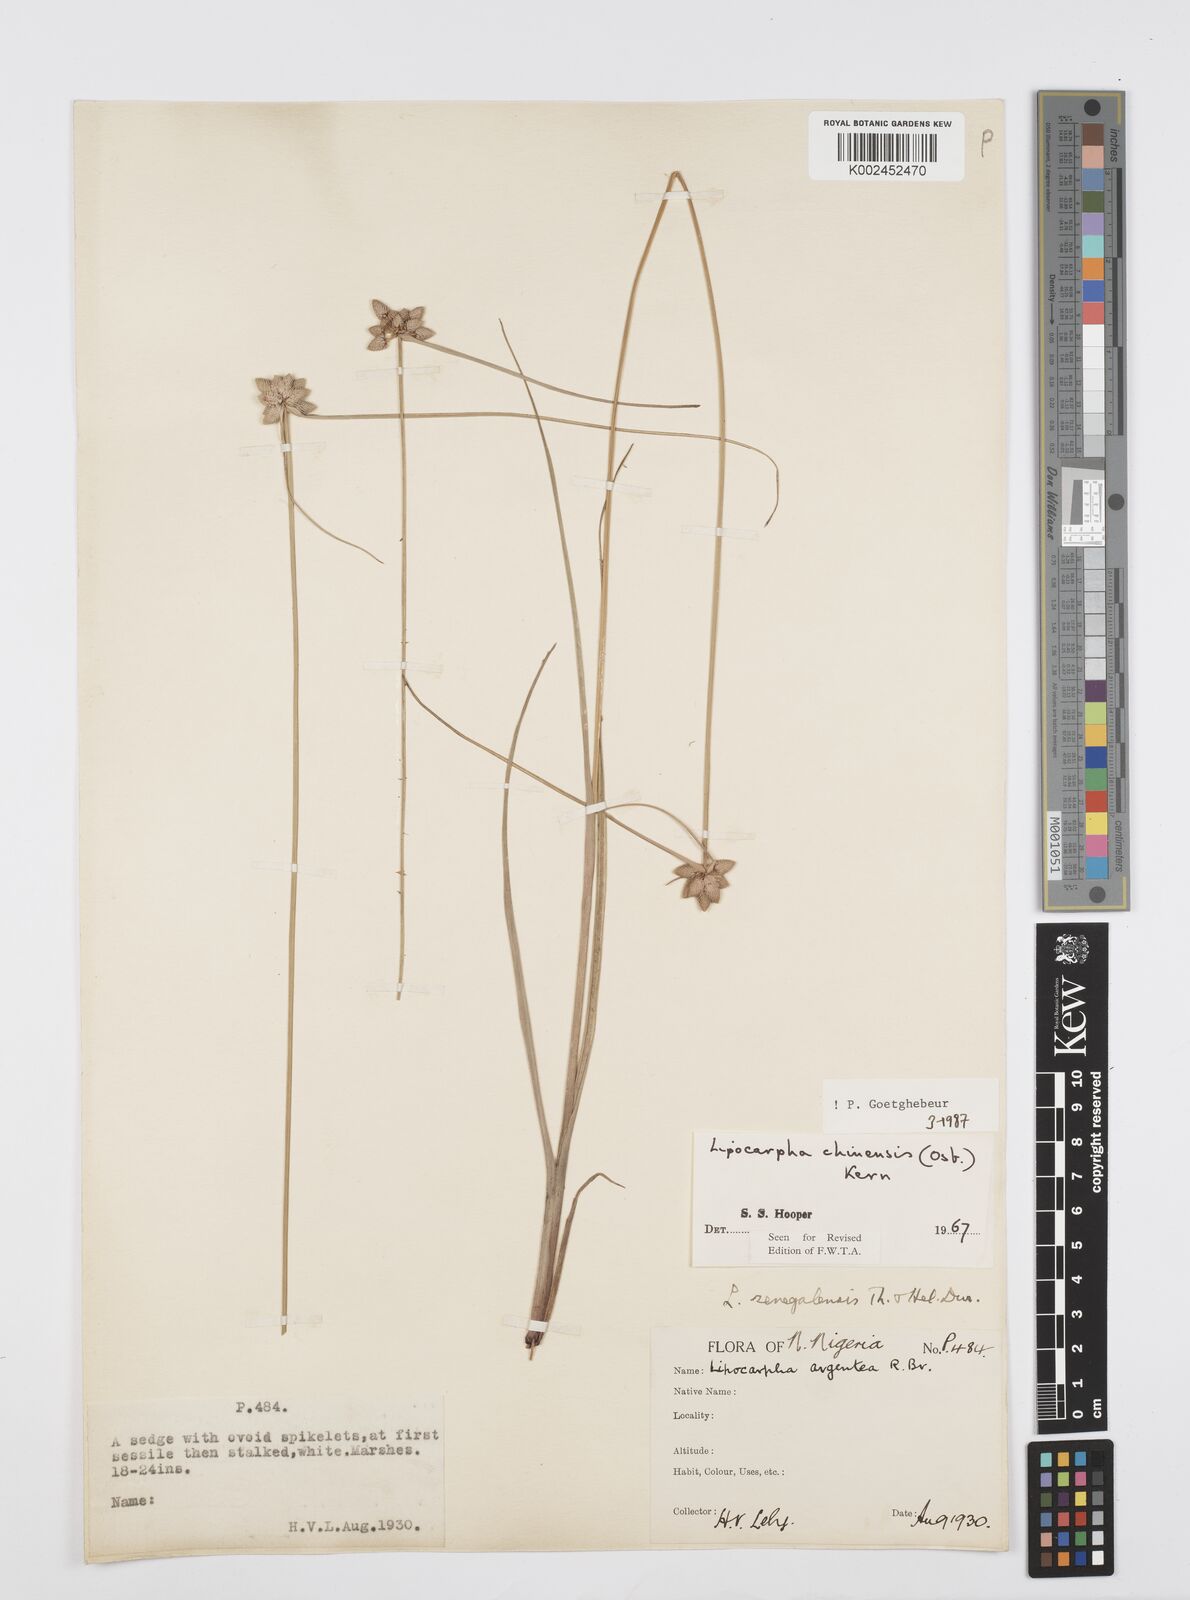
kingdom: Plantae
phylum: Tracheophyta
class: Liliopsida
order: Poales
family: Cyperaceae
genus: Cyperus
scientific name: Cyperus albescens
